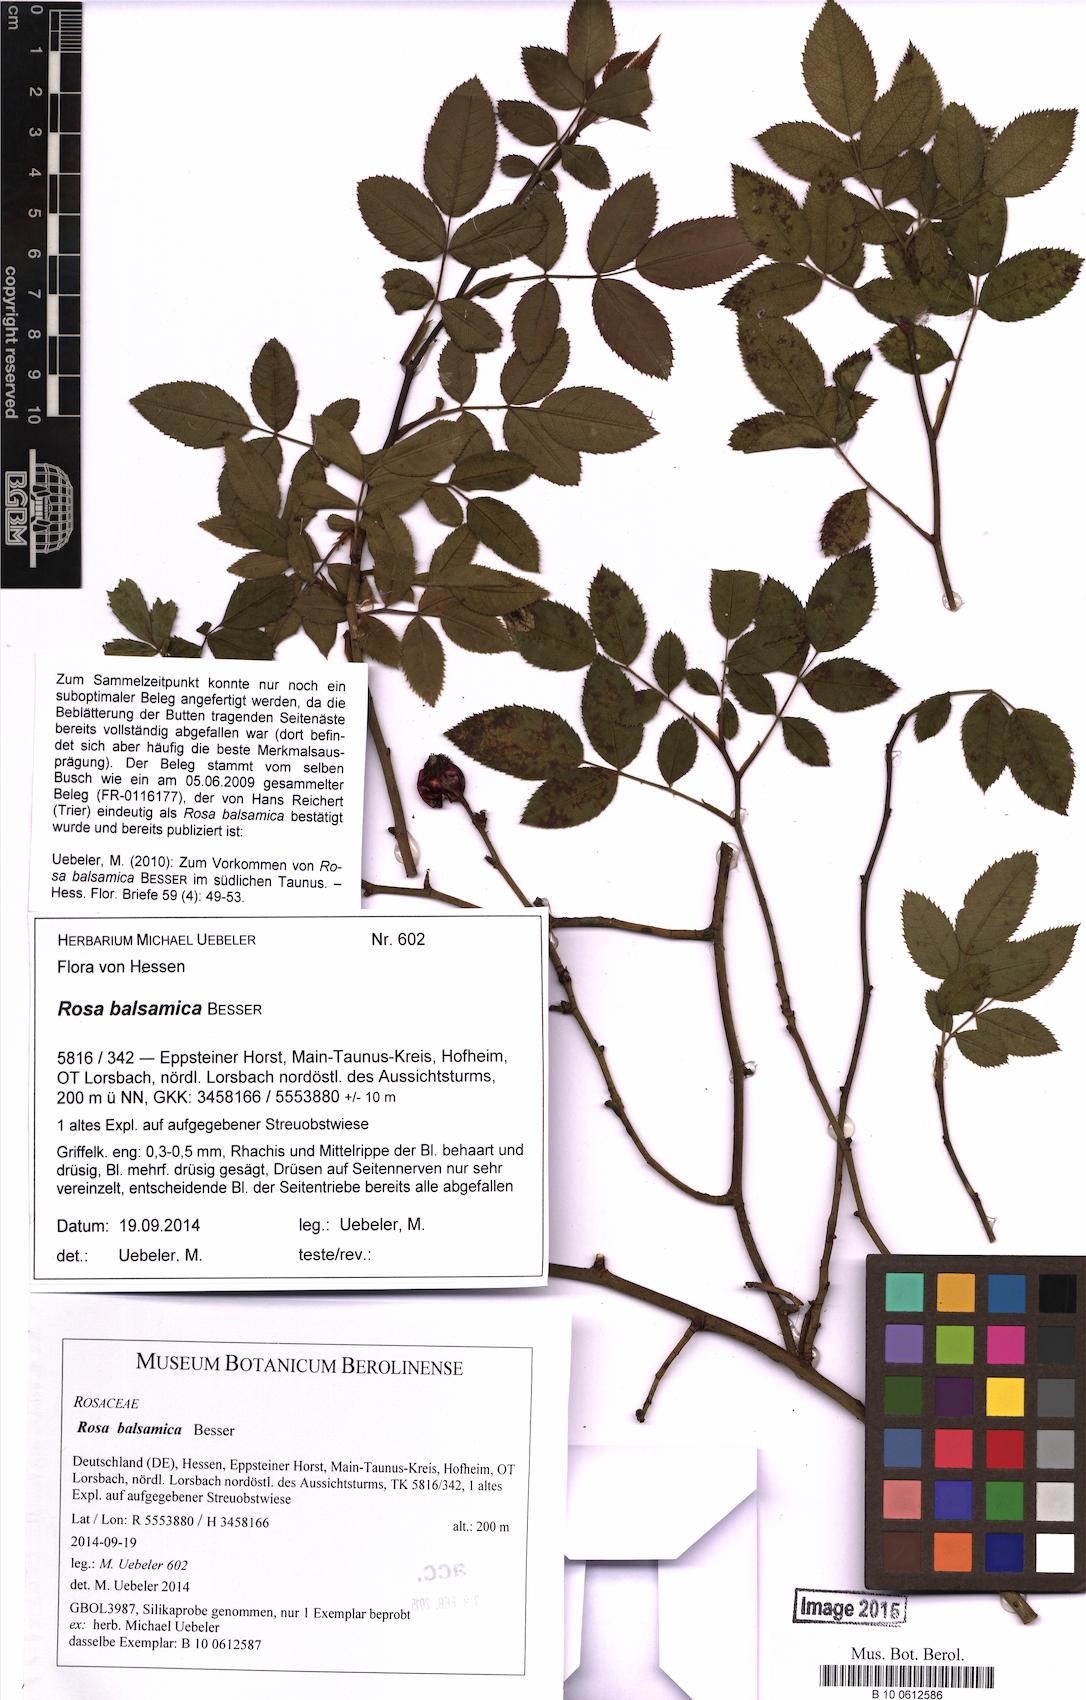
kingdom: Plantae
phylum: Tracheophyta
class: Magnoliopsida
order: Rosales
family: Rosaceae
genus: Rosa
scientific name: Rosa balsamica
